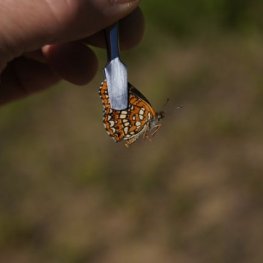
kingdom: Animalia
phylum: Arthropoda
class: Insecta
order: Lepidoptera
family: Nymphalidae
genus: Chlosyne
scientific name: Chlosyne harrisii
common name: Harris's Checkerspot
